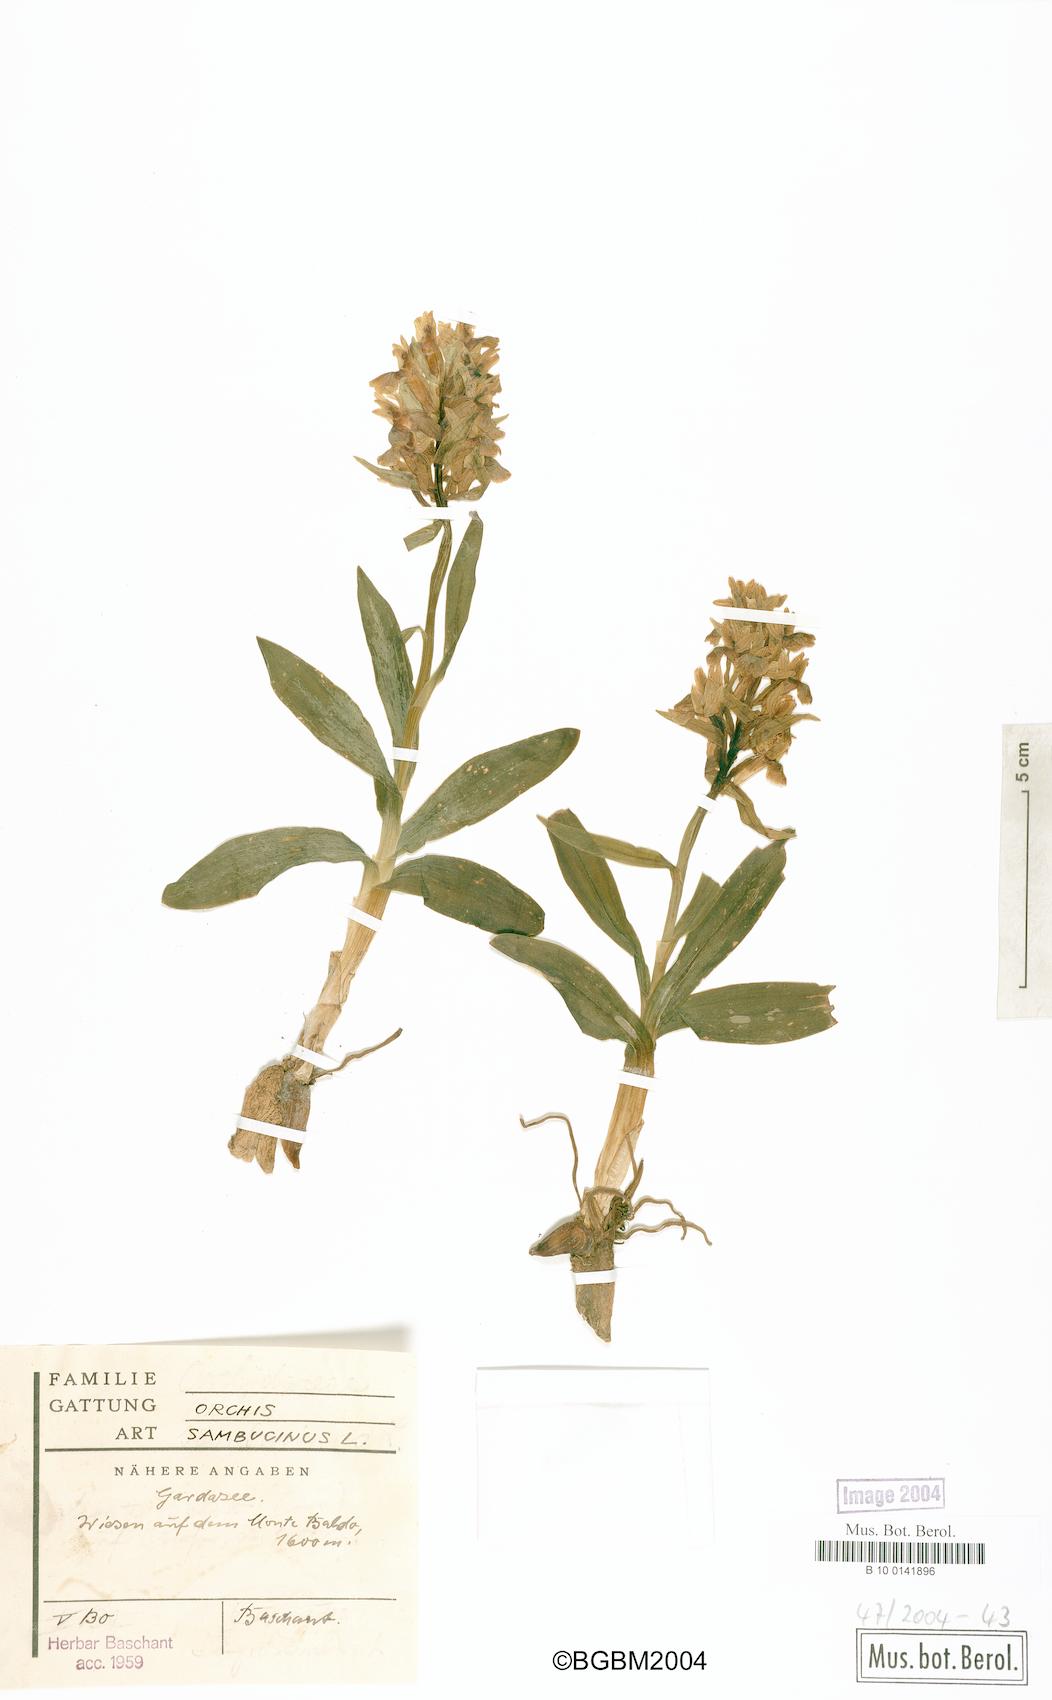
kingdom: Plantae
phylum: Tracheophyta
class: Liliopsida
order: Asparagales
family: Orchidaceae
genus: Dactylorhiza
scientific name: Dactylorhiza sambucina
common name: Elder-flowered orchid
